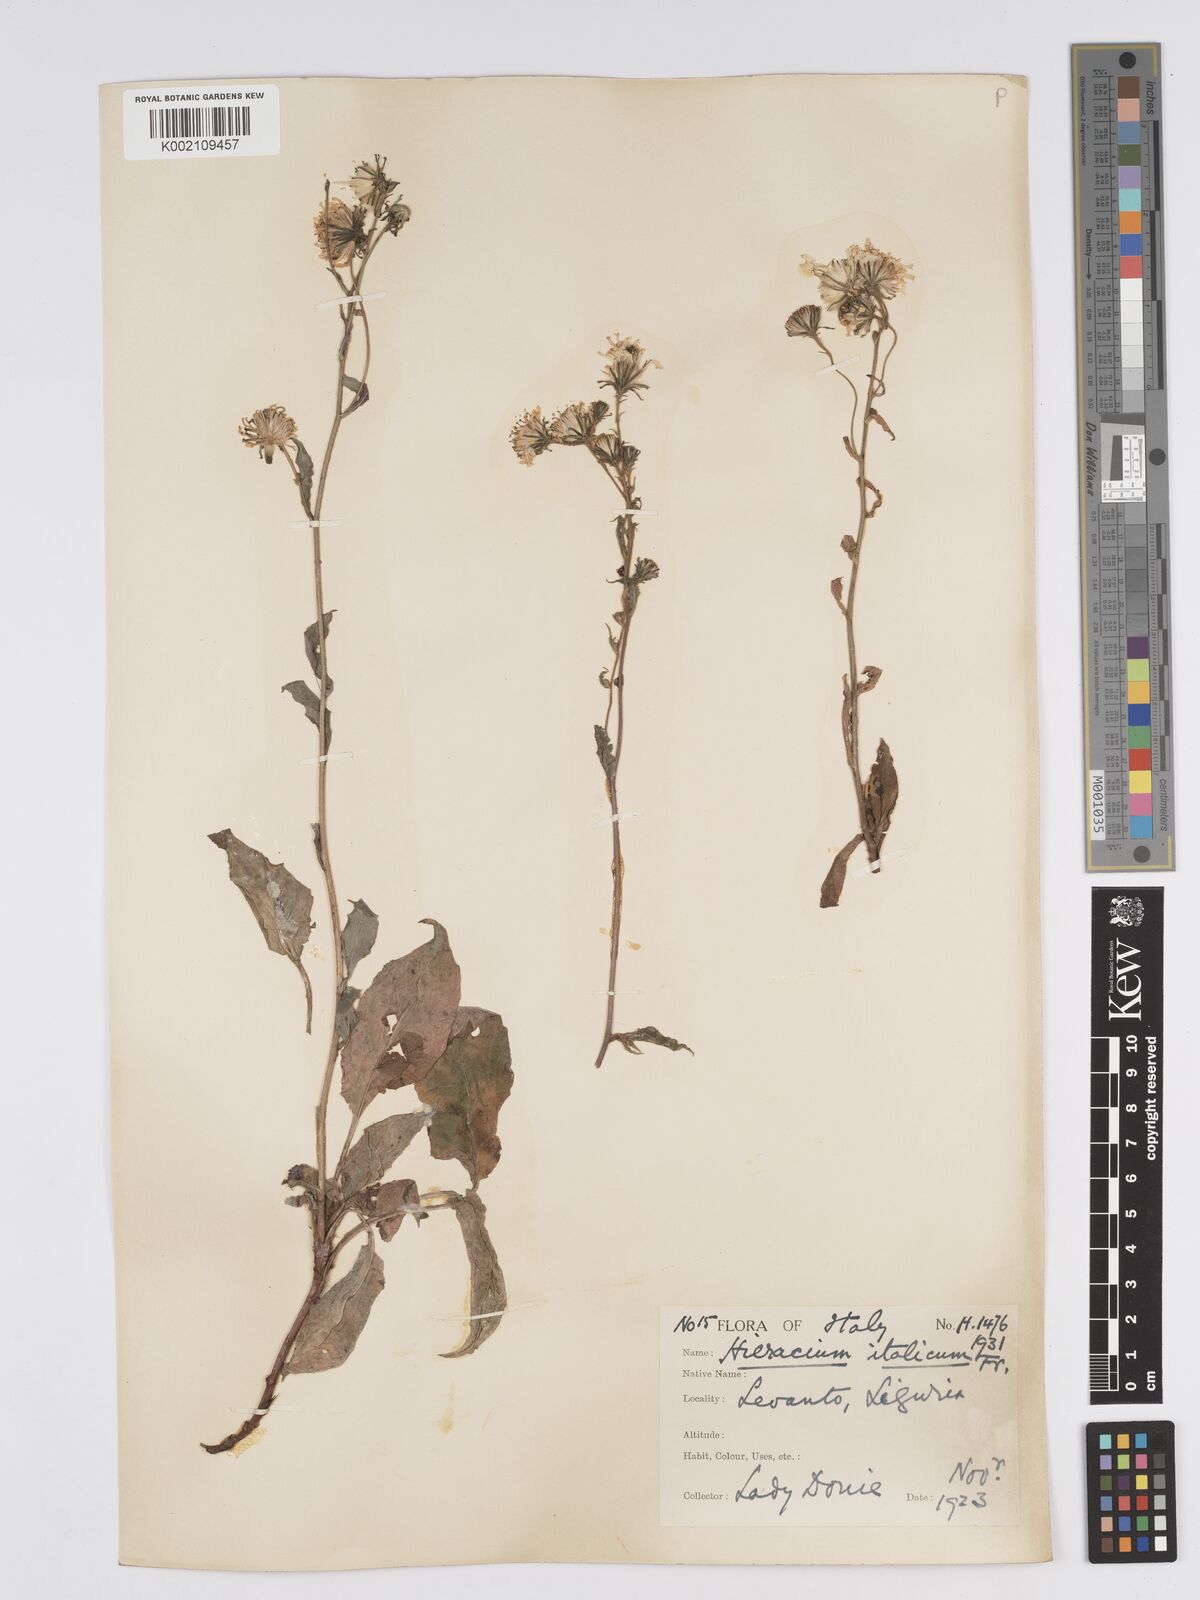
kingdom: Plantae
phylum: Tracheophyta
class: Magnoliopsida
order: Asterales
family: Asteraceae
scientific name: Asteraceae
